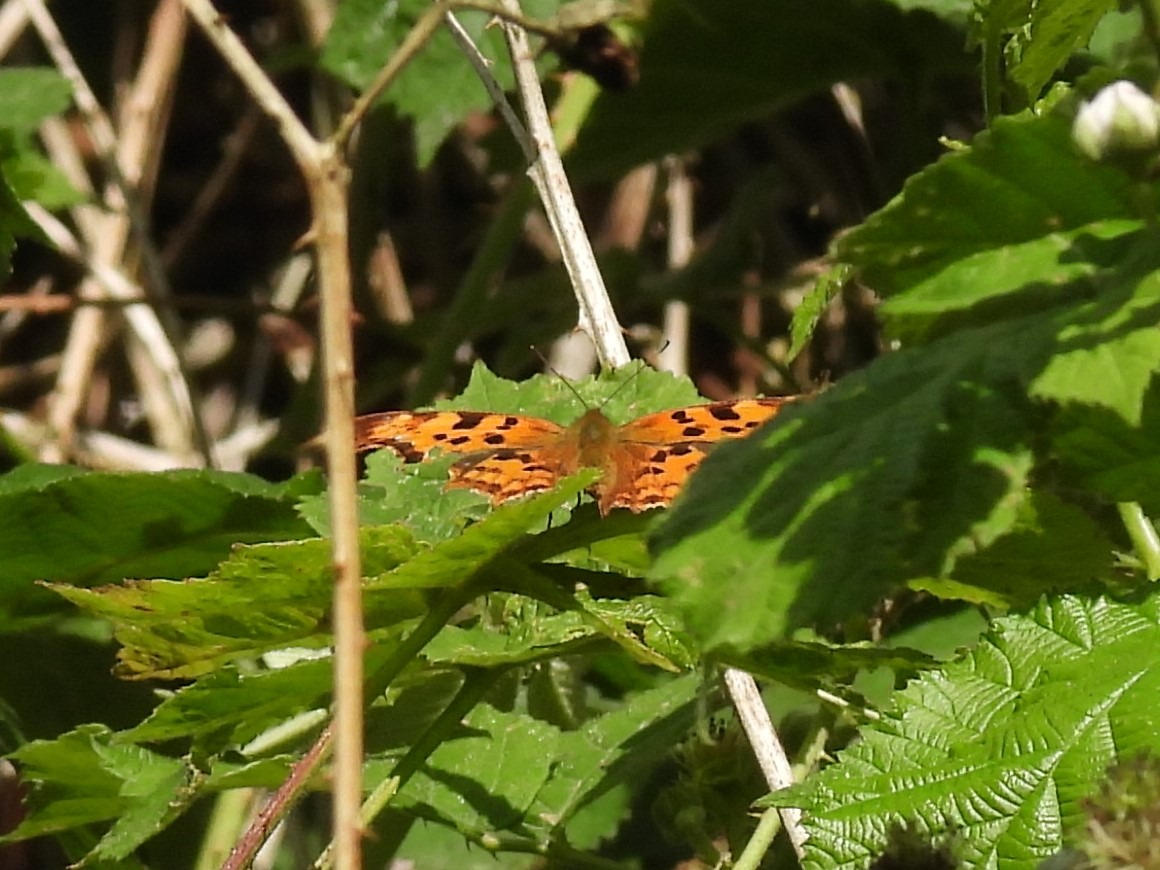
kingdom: Animalia
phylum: Arthropoda
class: Insecta
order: Lepidoptera
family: Nymphalidae
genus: Polygonia
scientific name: Polygonia c-album
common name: Det hvide C
